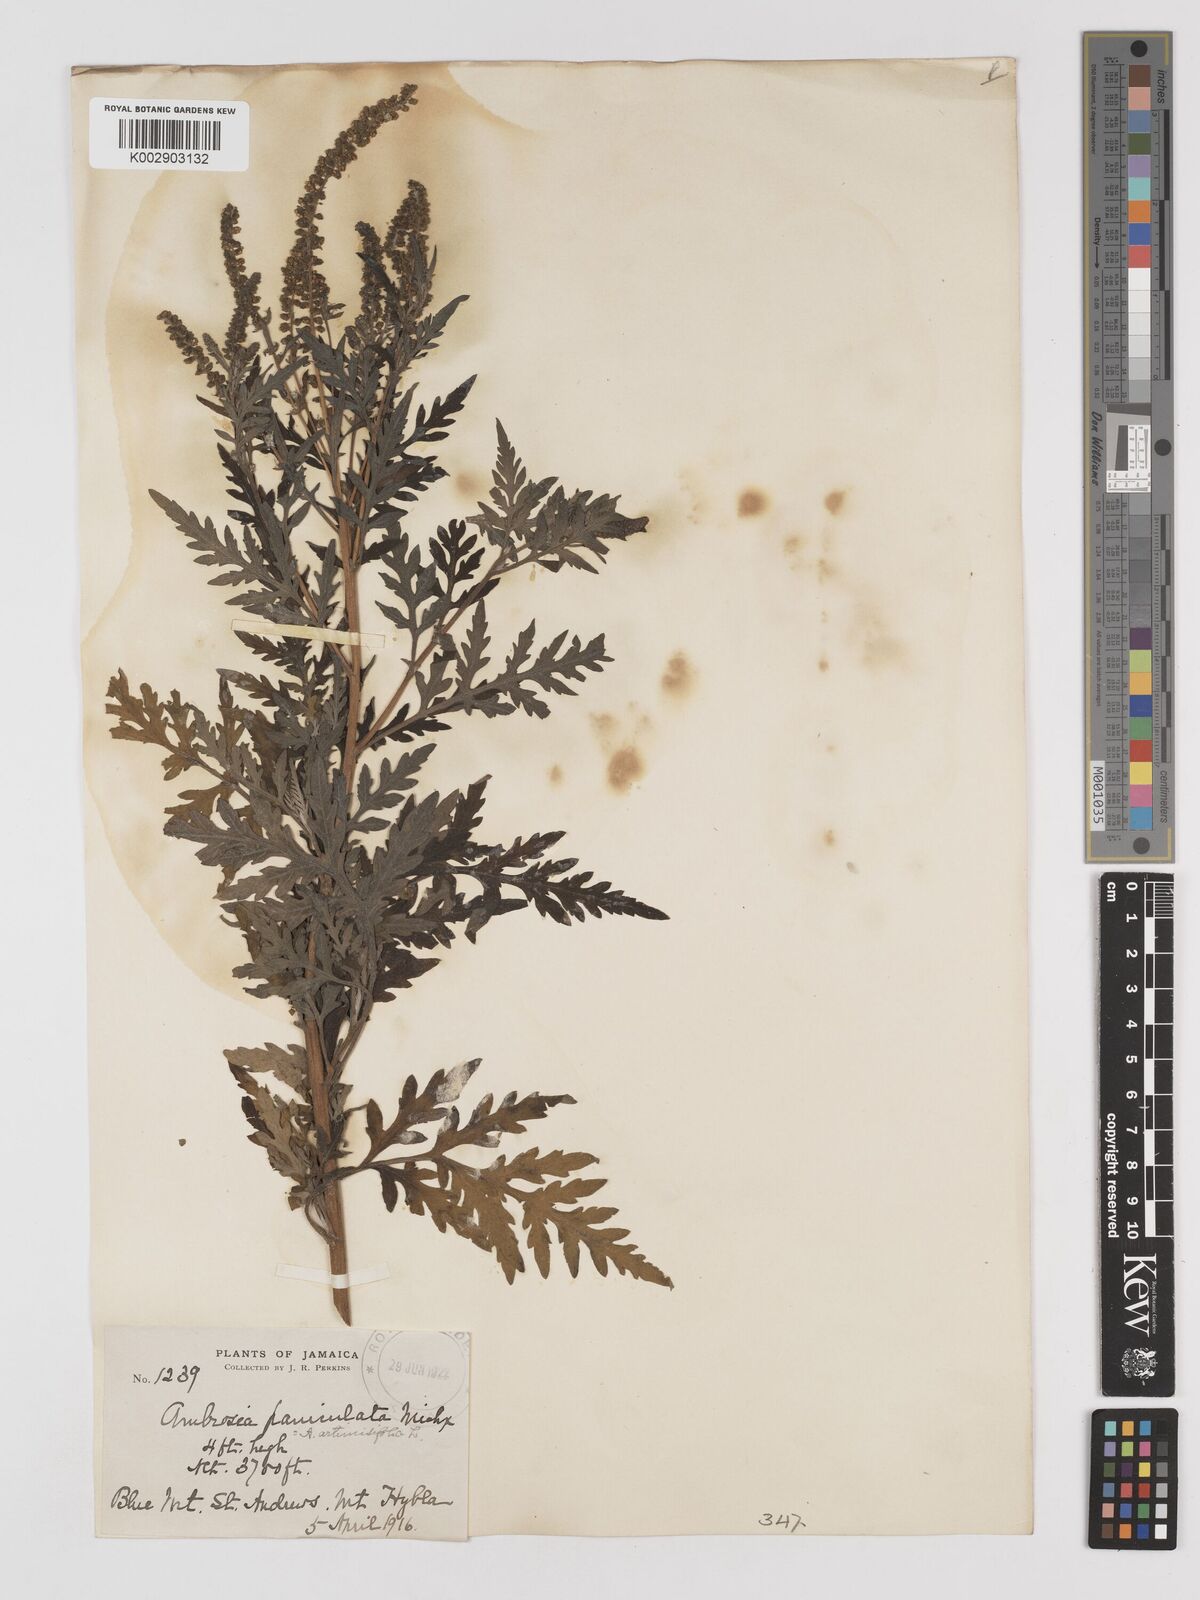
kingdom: Plantae
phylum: Tracheophyta
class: Magnoliopsida
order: Asterales
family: Asteraceae
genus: Ambrosia
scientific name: Ambrosia artemisiifolia
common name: Annual ragweed
